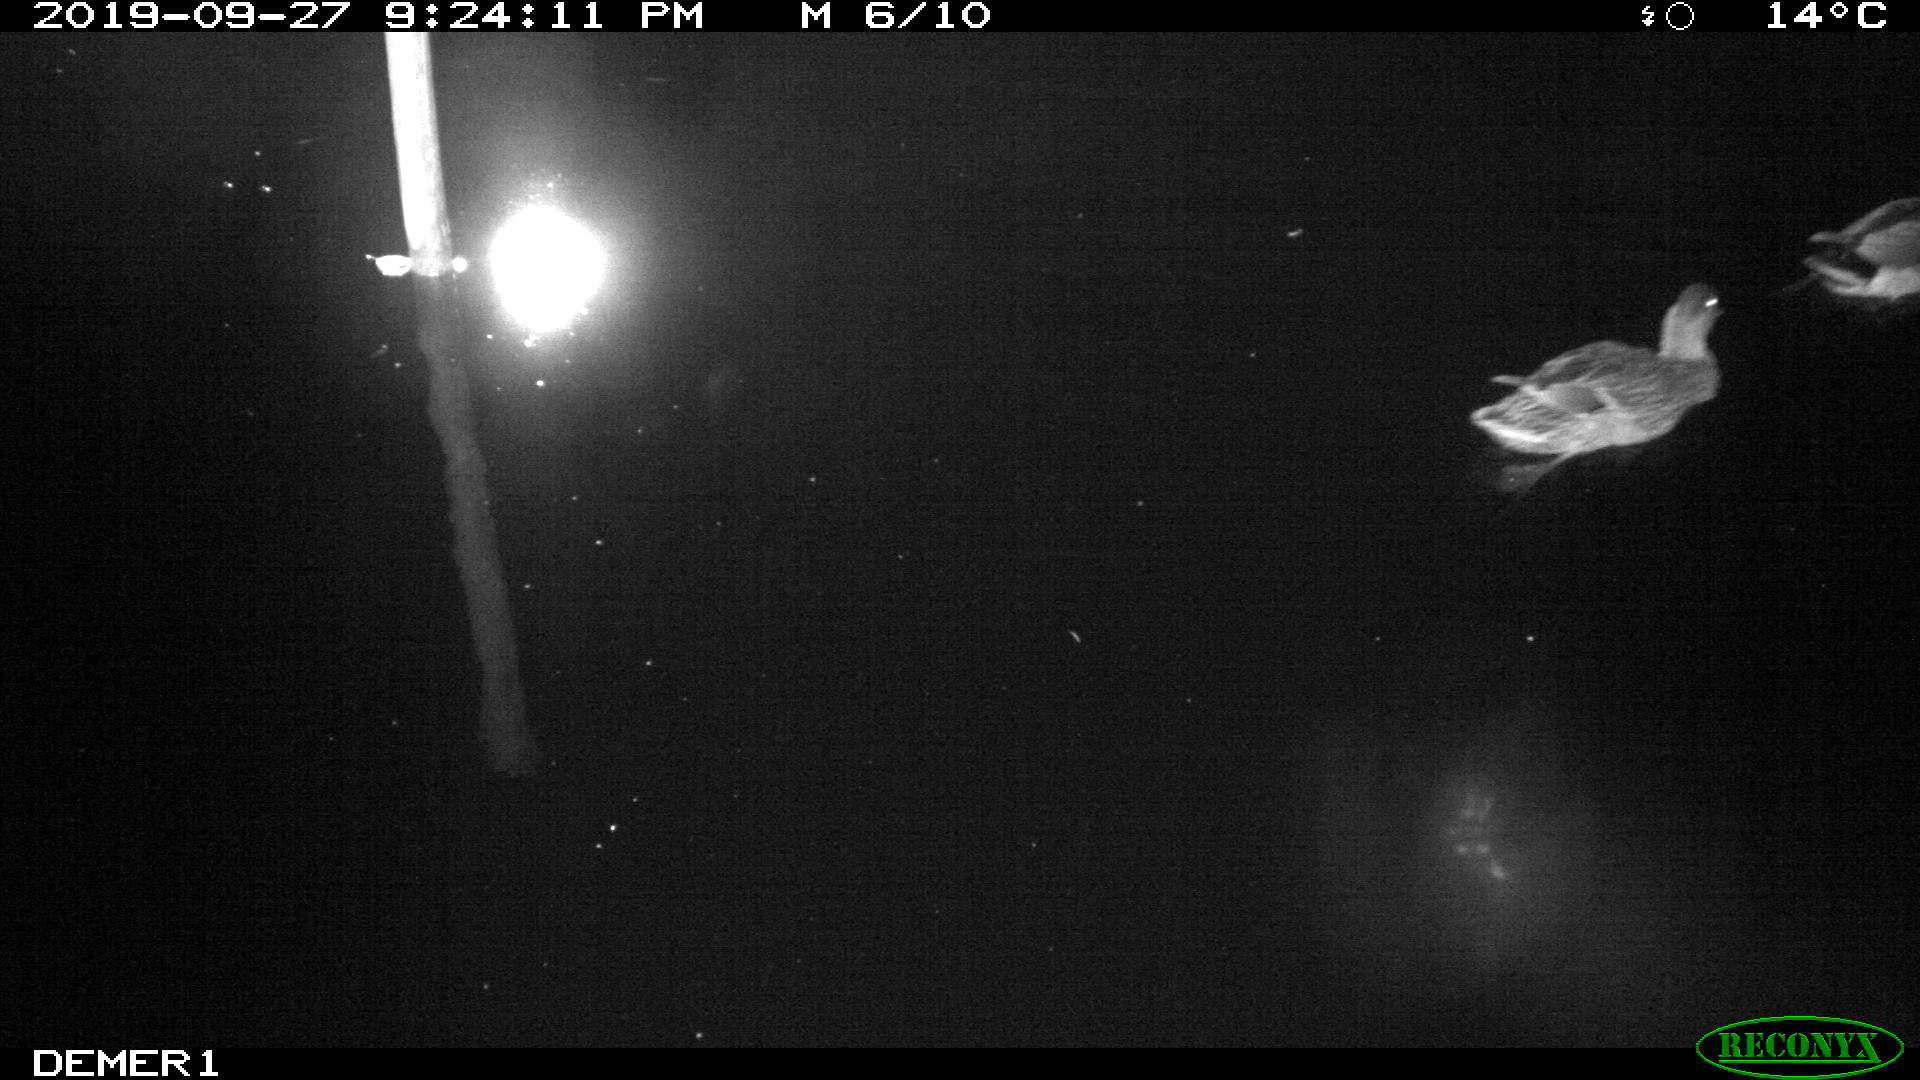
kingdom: Animalia
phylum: Chordata
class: Aves
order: Anseriformes
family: Anatidae
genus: Anas
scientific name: Anas platyrhynchos
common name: Mallard
